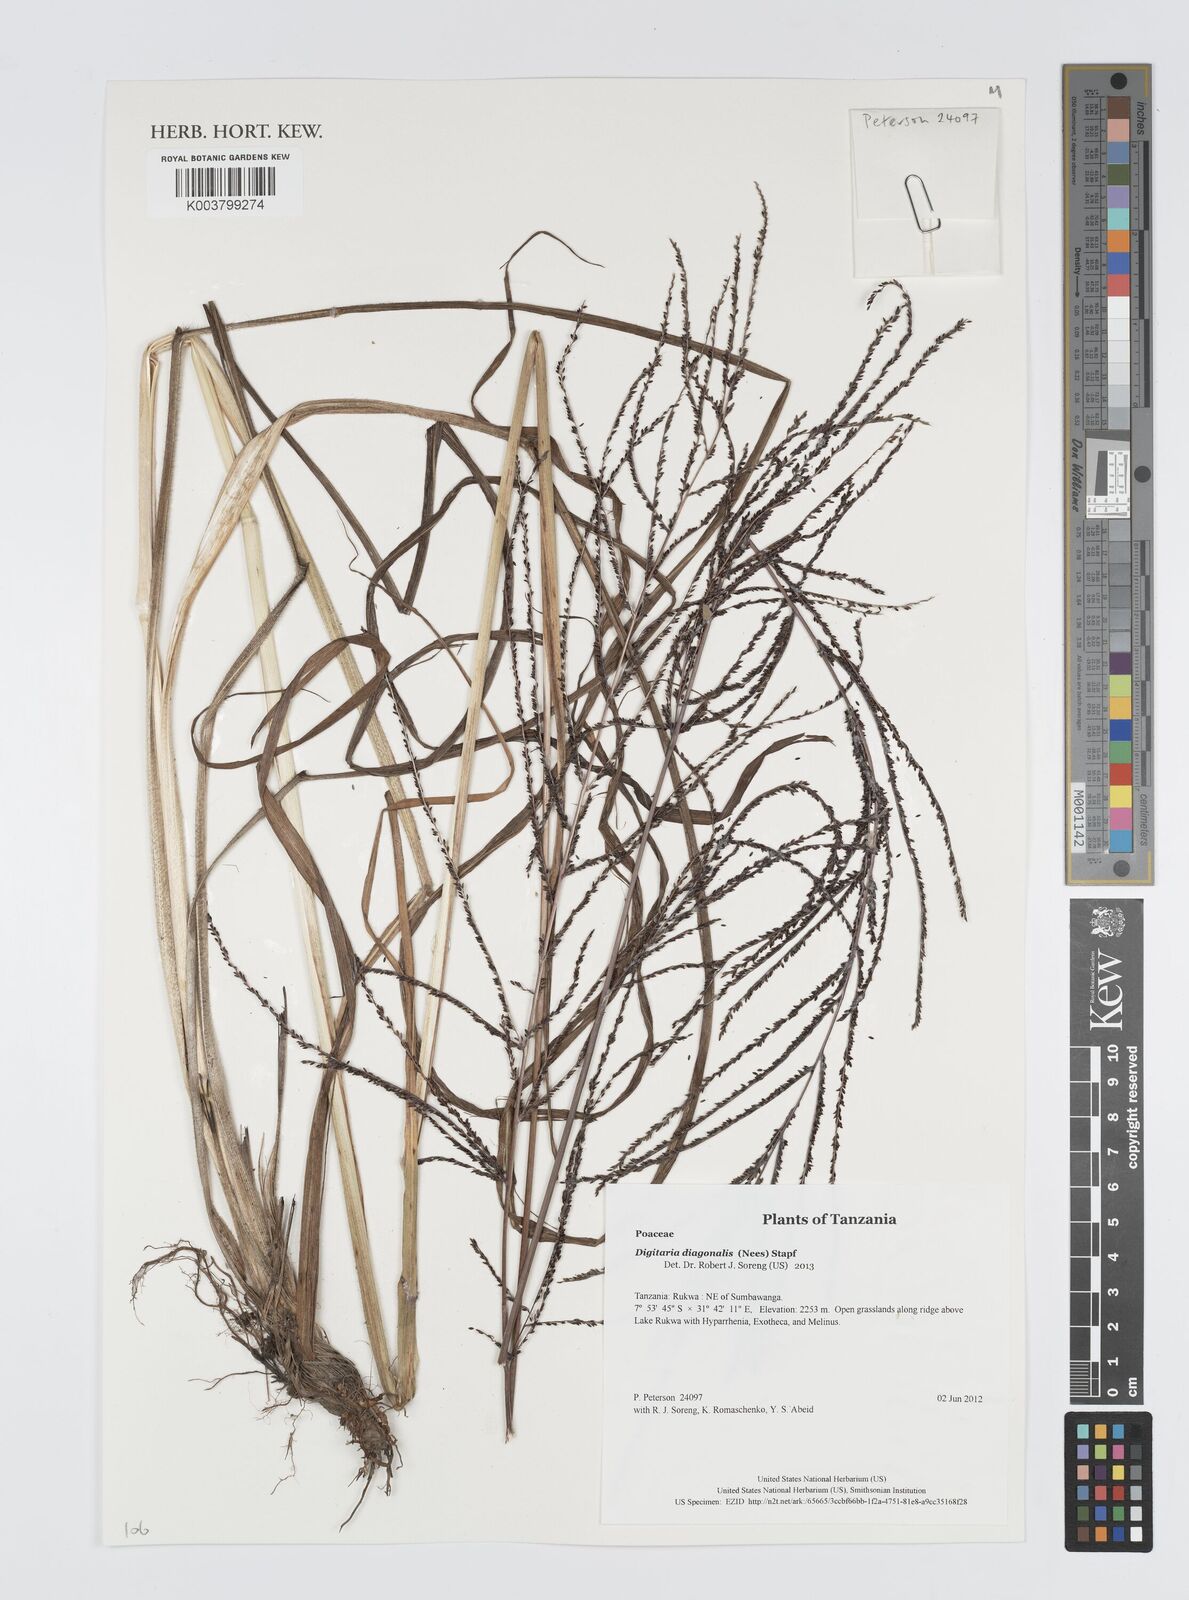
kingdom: Plantae
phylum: Tracheophyta
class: Liliopsida
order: Poales
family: Poaceae
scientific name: Poaceae
